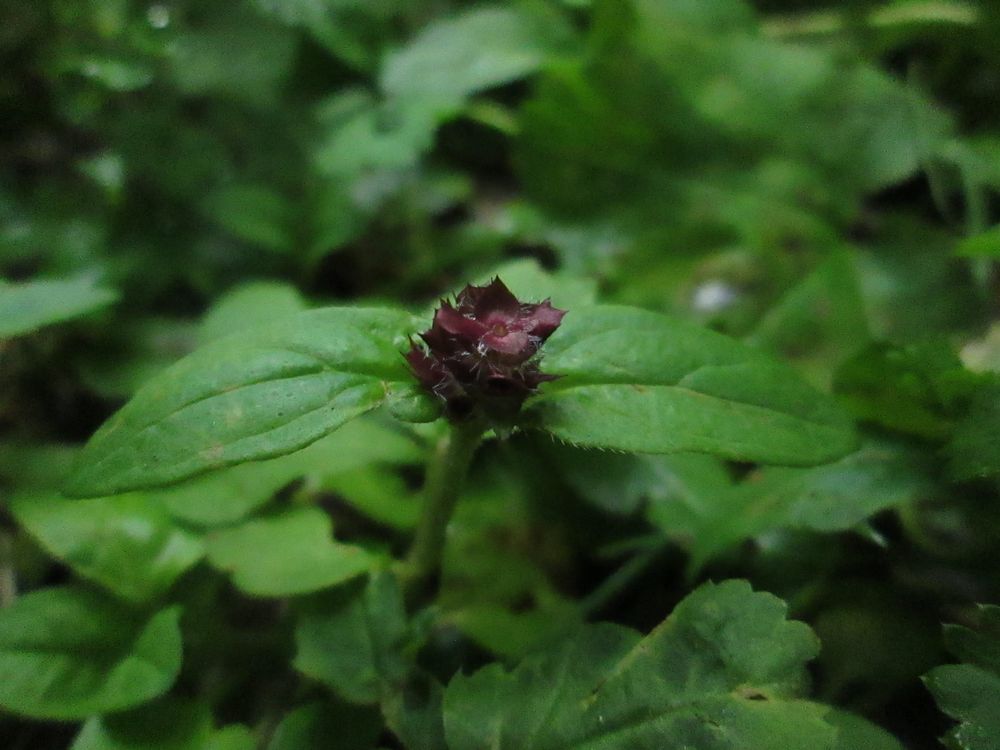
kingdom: Plantae
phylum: Tracheophyta
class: Magnoliopsida
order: Lamiales
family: Lamiaceae
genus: Prunella
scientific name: Prunella vulgaris
